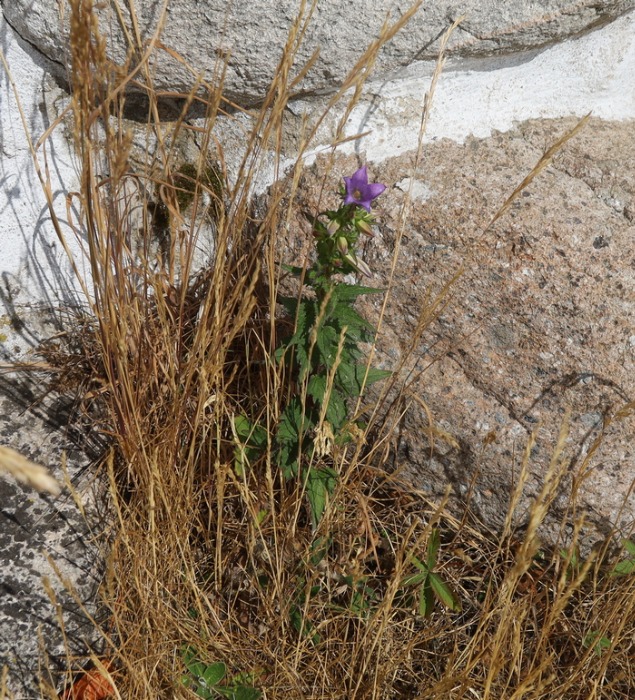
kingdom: Plantae
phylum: Tracheophyta
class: Magnoliopsida
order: Asterales
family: Campanulaceae
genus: Campanula
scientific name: Campanula trachelium
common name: Nælde-klokke
